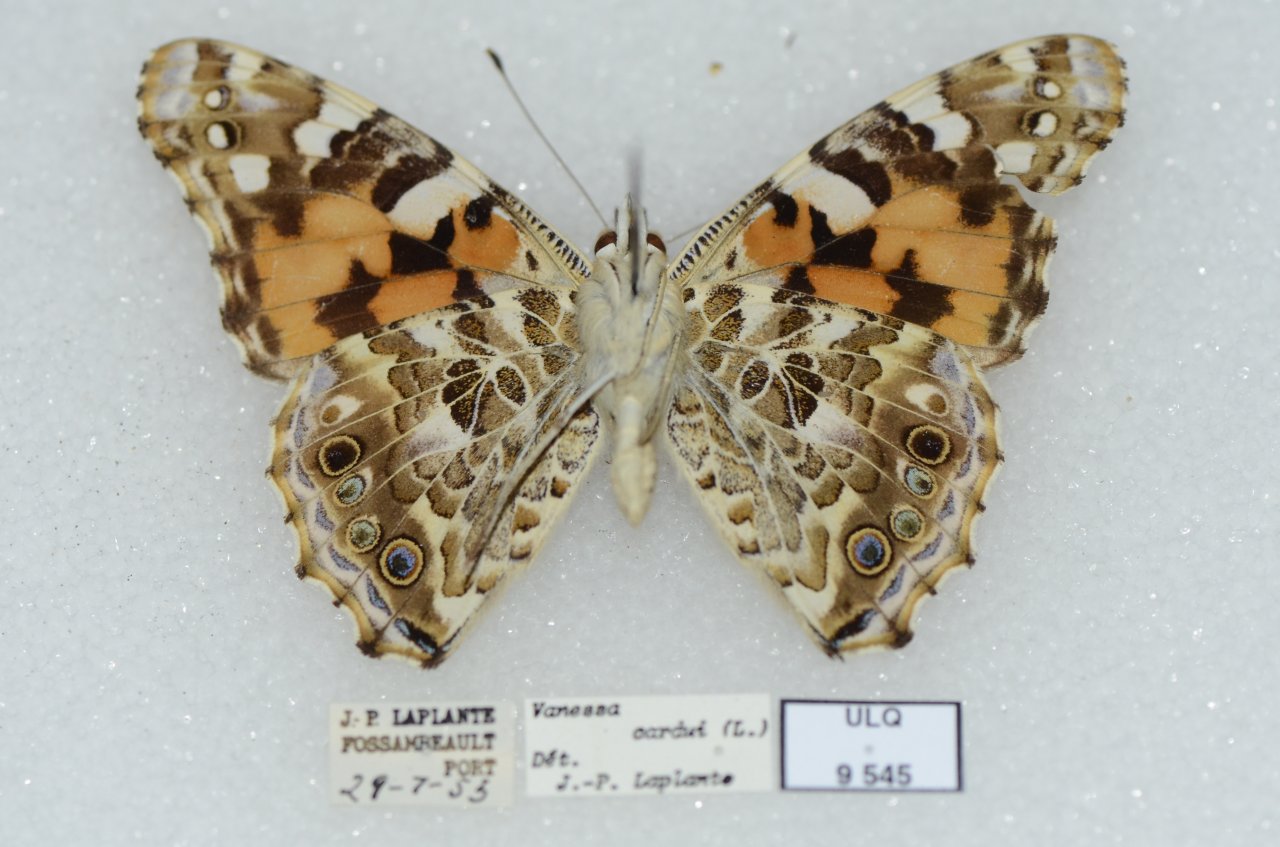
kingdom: Animalia
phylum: Arthropoda
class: Insecta
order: Lepidoptera
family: Nymphalidae
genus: Vanessa
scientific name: Vanessa cardui
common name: Painted Lady
